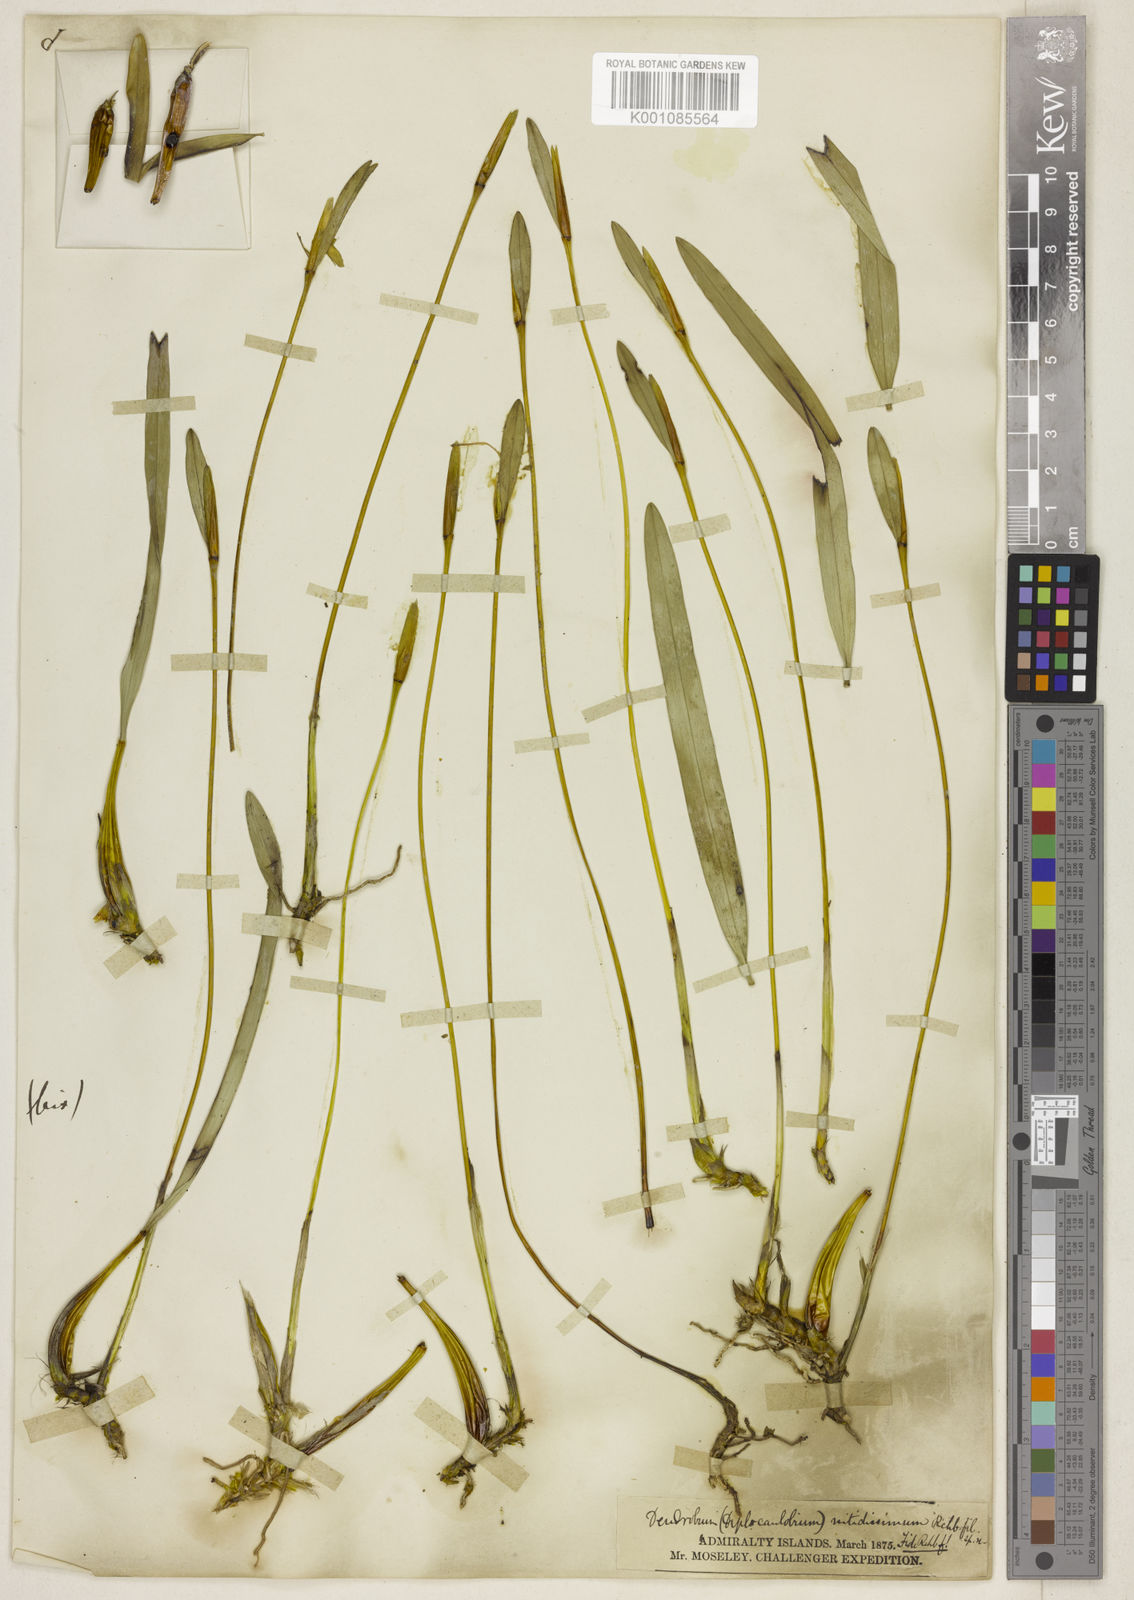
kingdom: Plantae
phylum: Tracheophyta
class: Liliopsida
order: Asparagales
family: Orchidaceae
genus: Dendrobium
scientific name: Dendrobium nitidissimum
